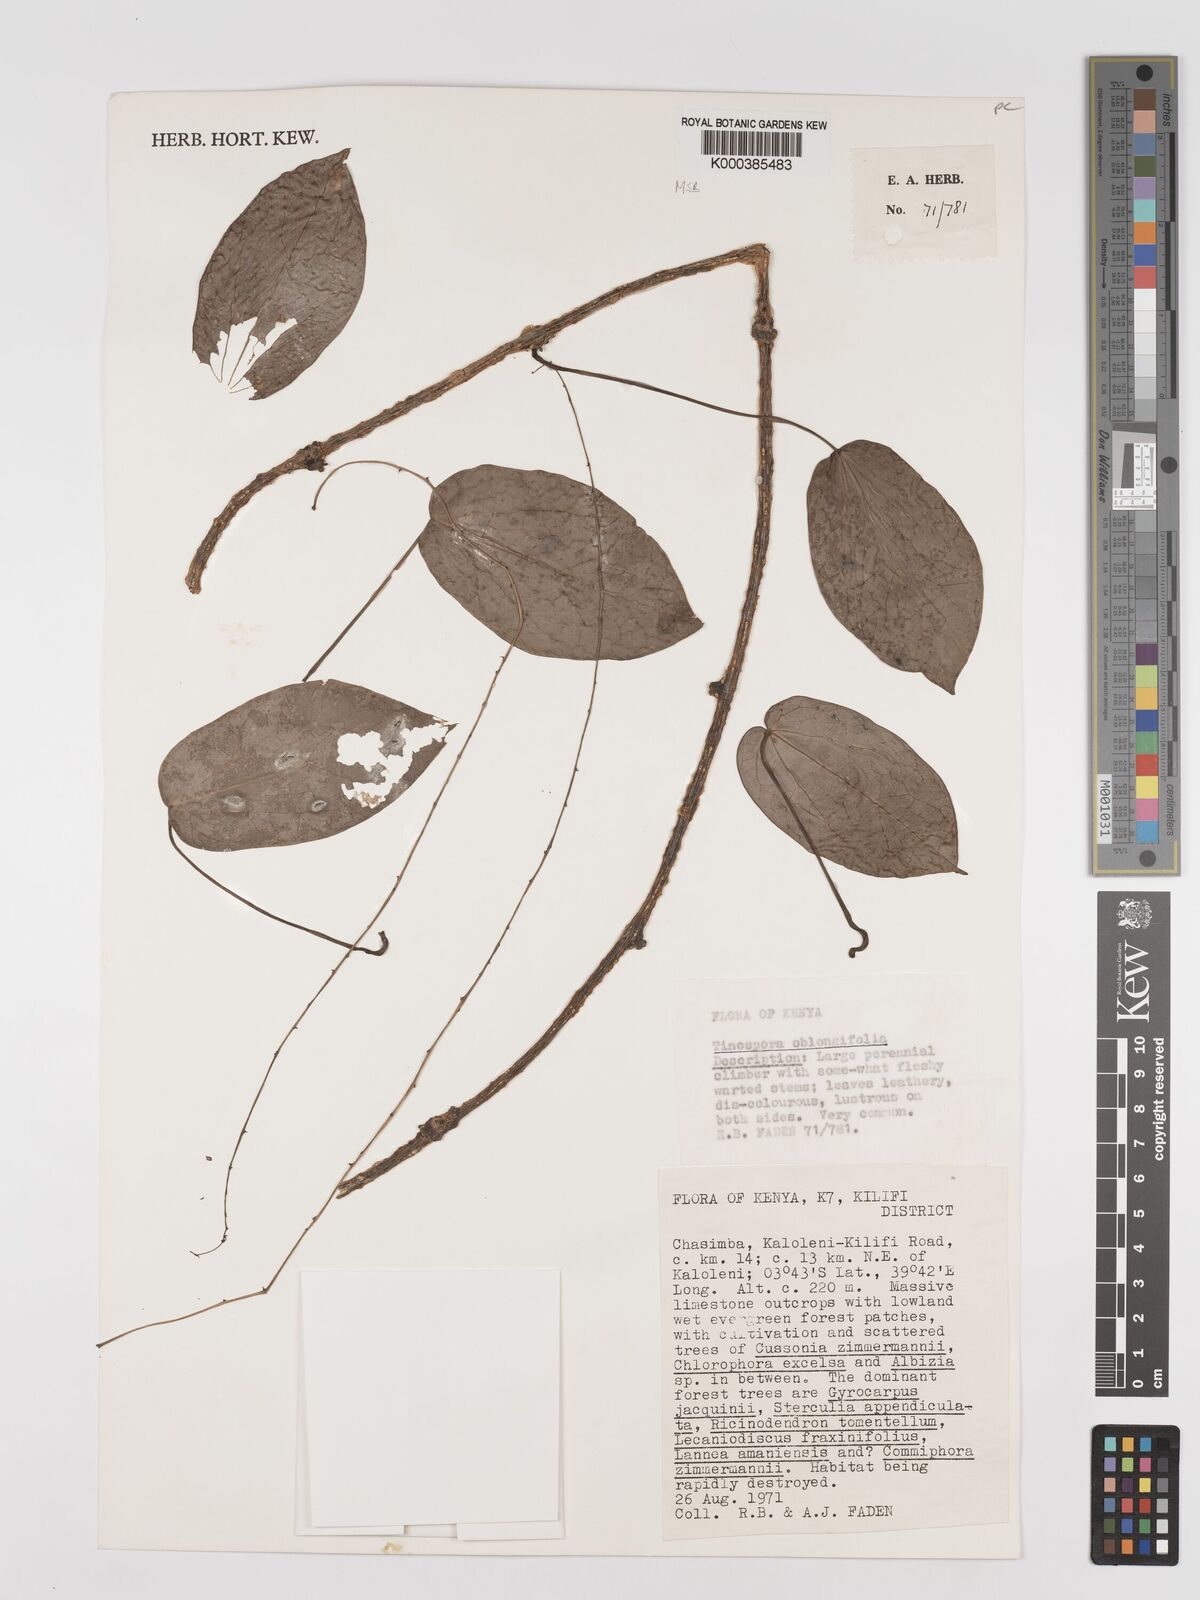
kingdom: Plantae
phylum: Tracheophyta
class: Magnoliopsida
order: Ranunculales
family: Menispermaceae
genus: Tinospora
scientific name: Tinospora oblongifolia
